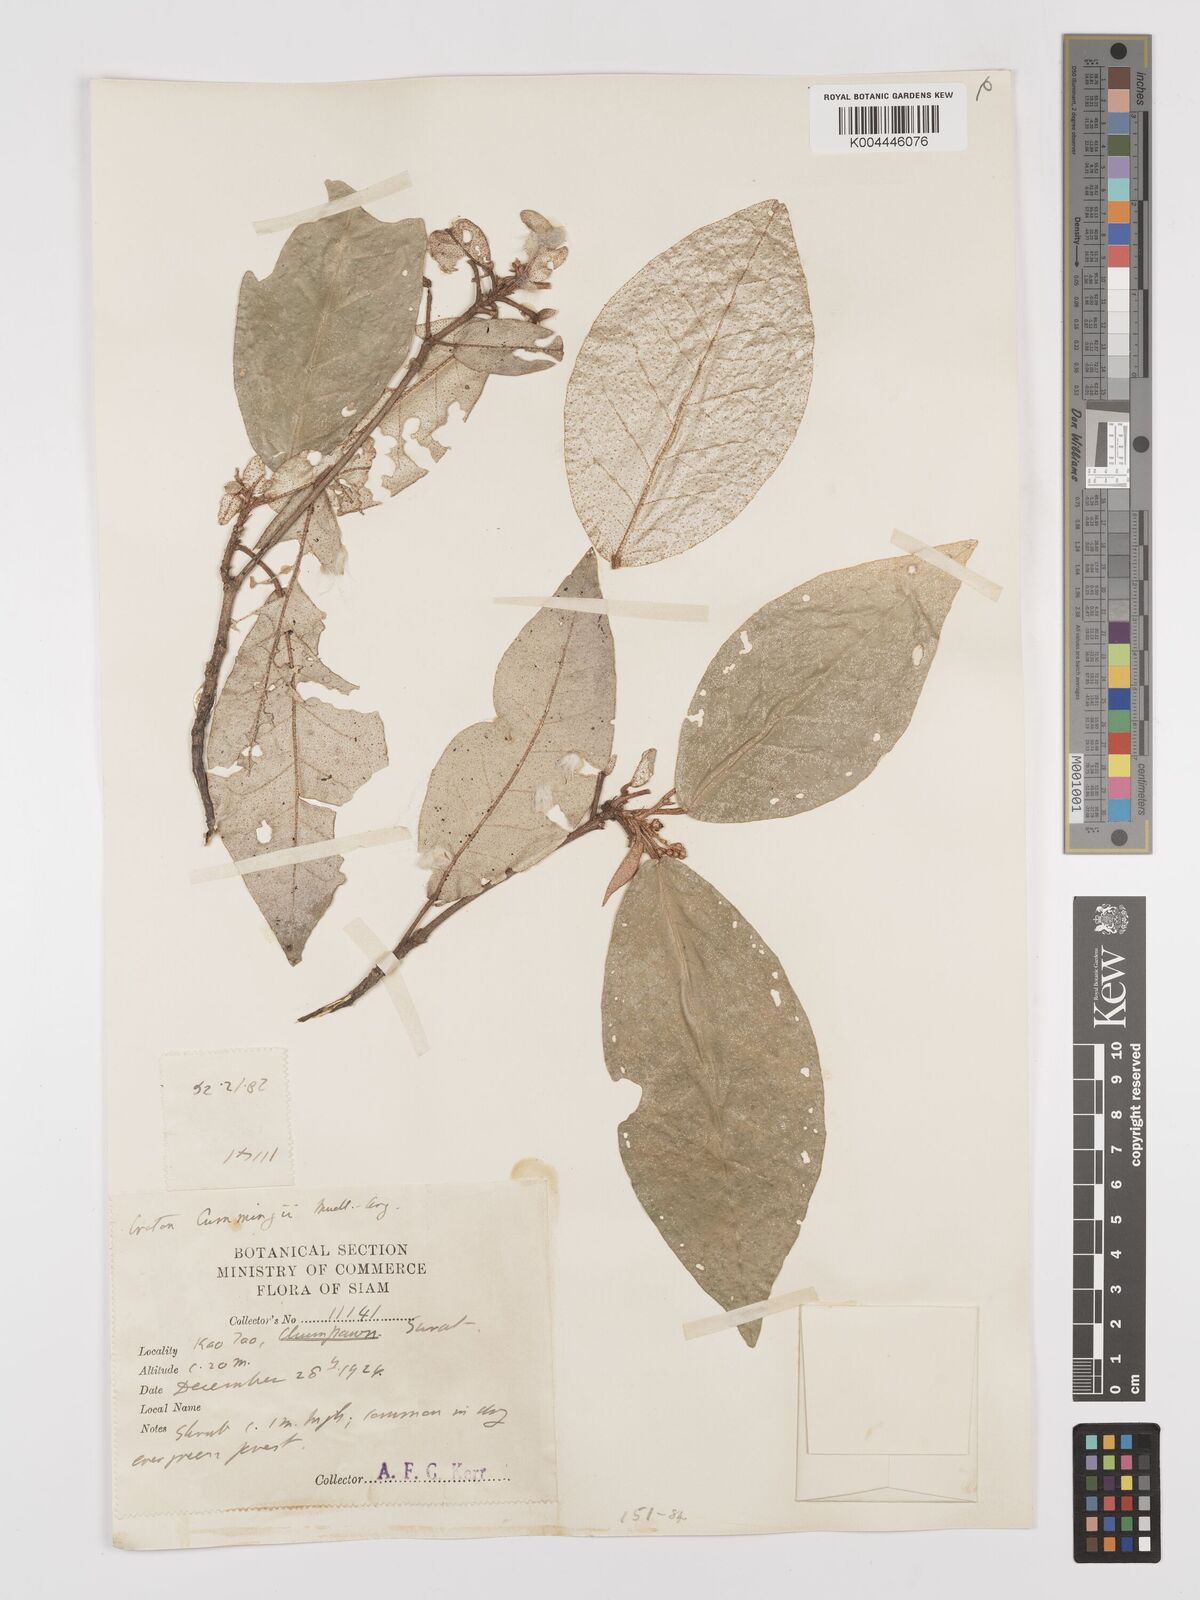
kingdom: Plantae
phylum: Tracheophyta
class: Magnoliopsida
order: Malpighiales
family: Euphorbiaceae
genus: Croton
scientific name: Croton cascarilloides
